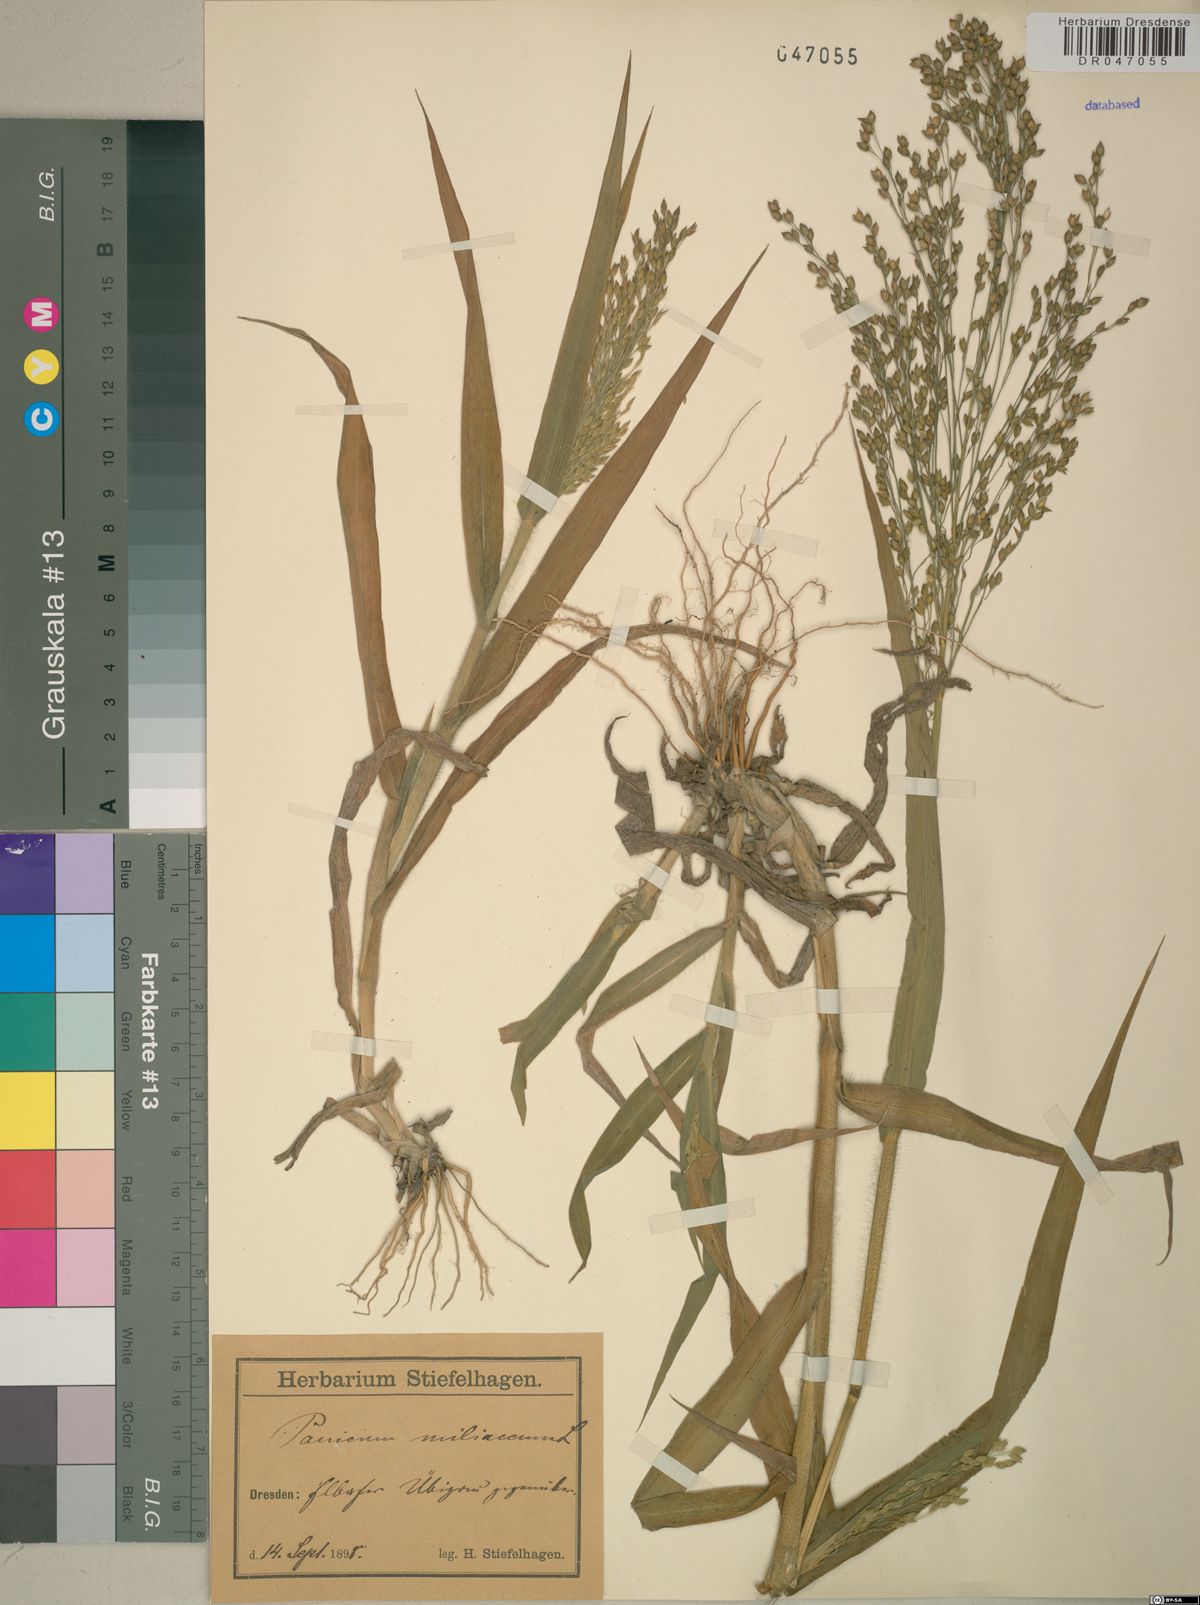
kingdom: Plantae
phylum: Tracheophyta
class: Liliopsida
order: Poales
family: Poaceae
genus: Panicum
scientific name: Panicum miliaceum
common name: Common millet
